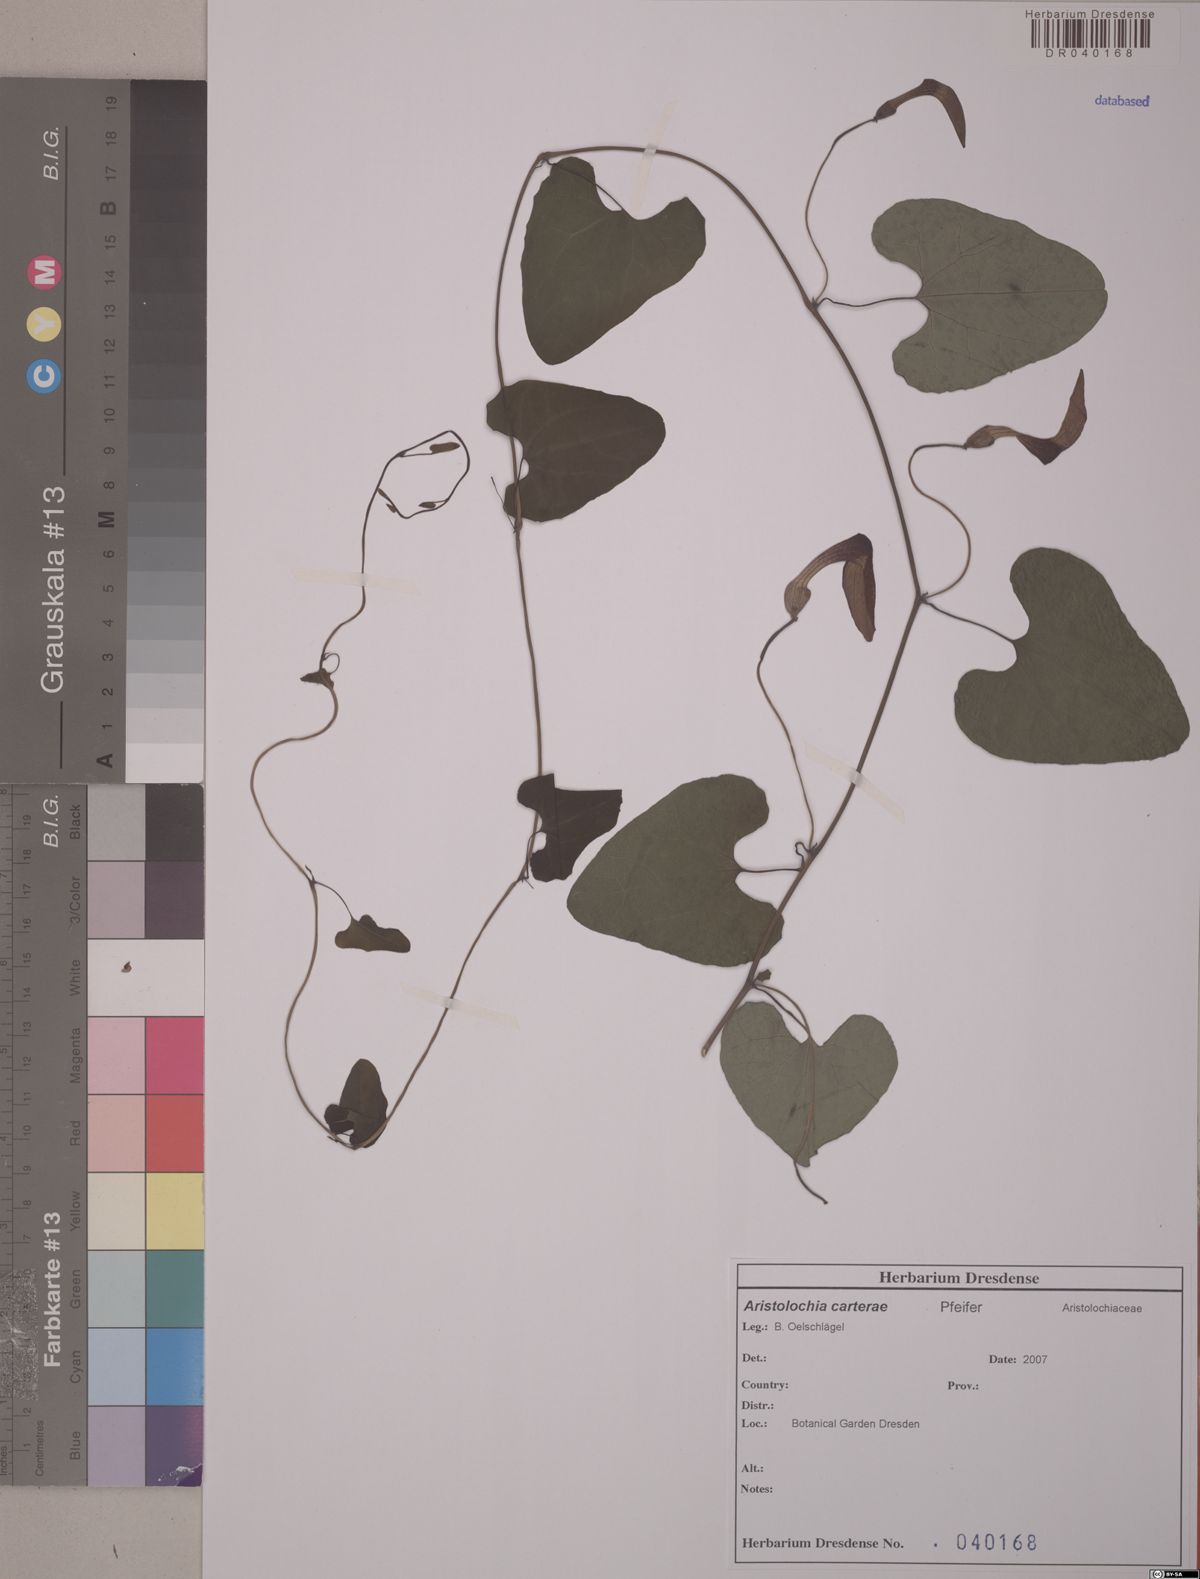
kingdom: Plantae
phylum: Tracheophyta
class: Magnoliopsida
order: Piperales
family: Aristolochiaceae
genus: Aristolochia
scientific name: Aristolochia carterae
